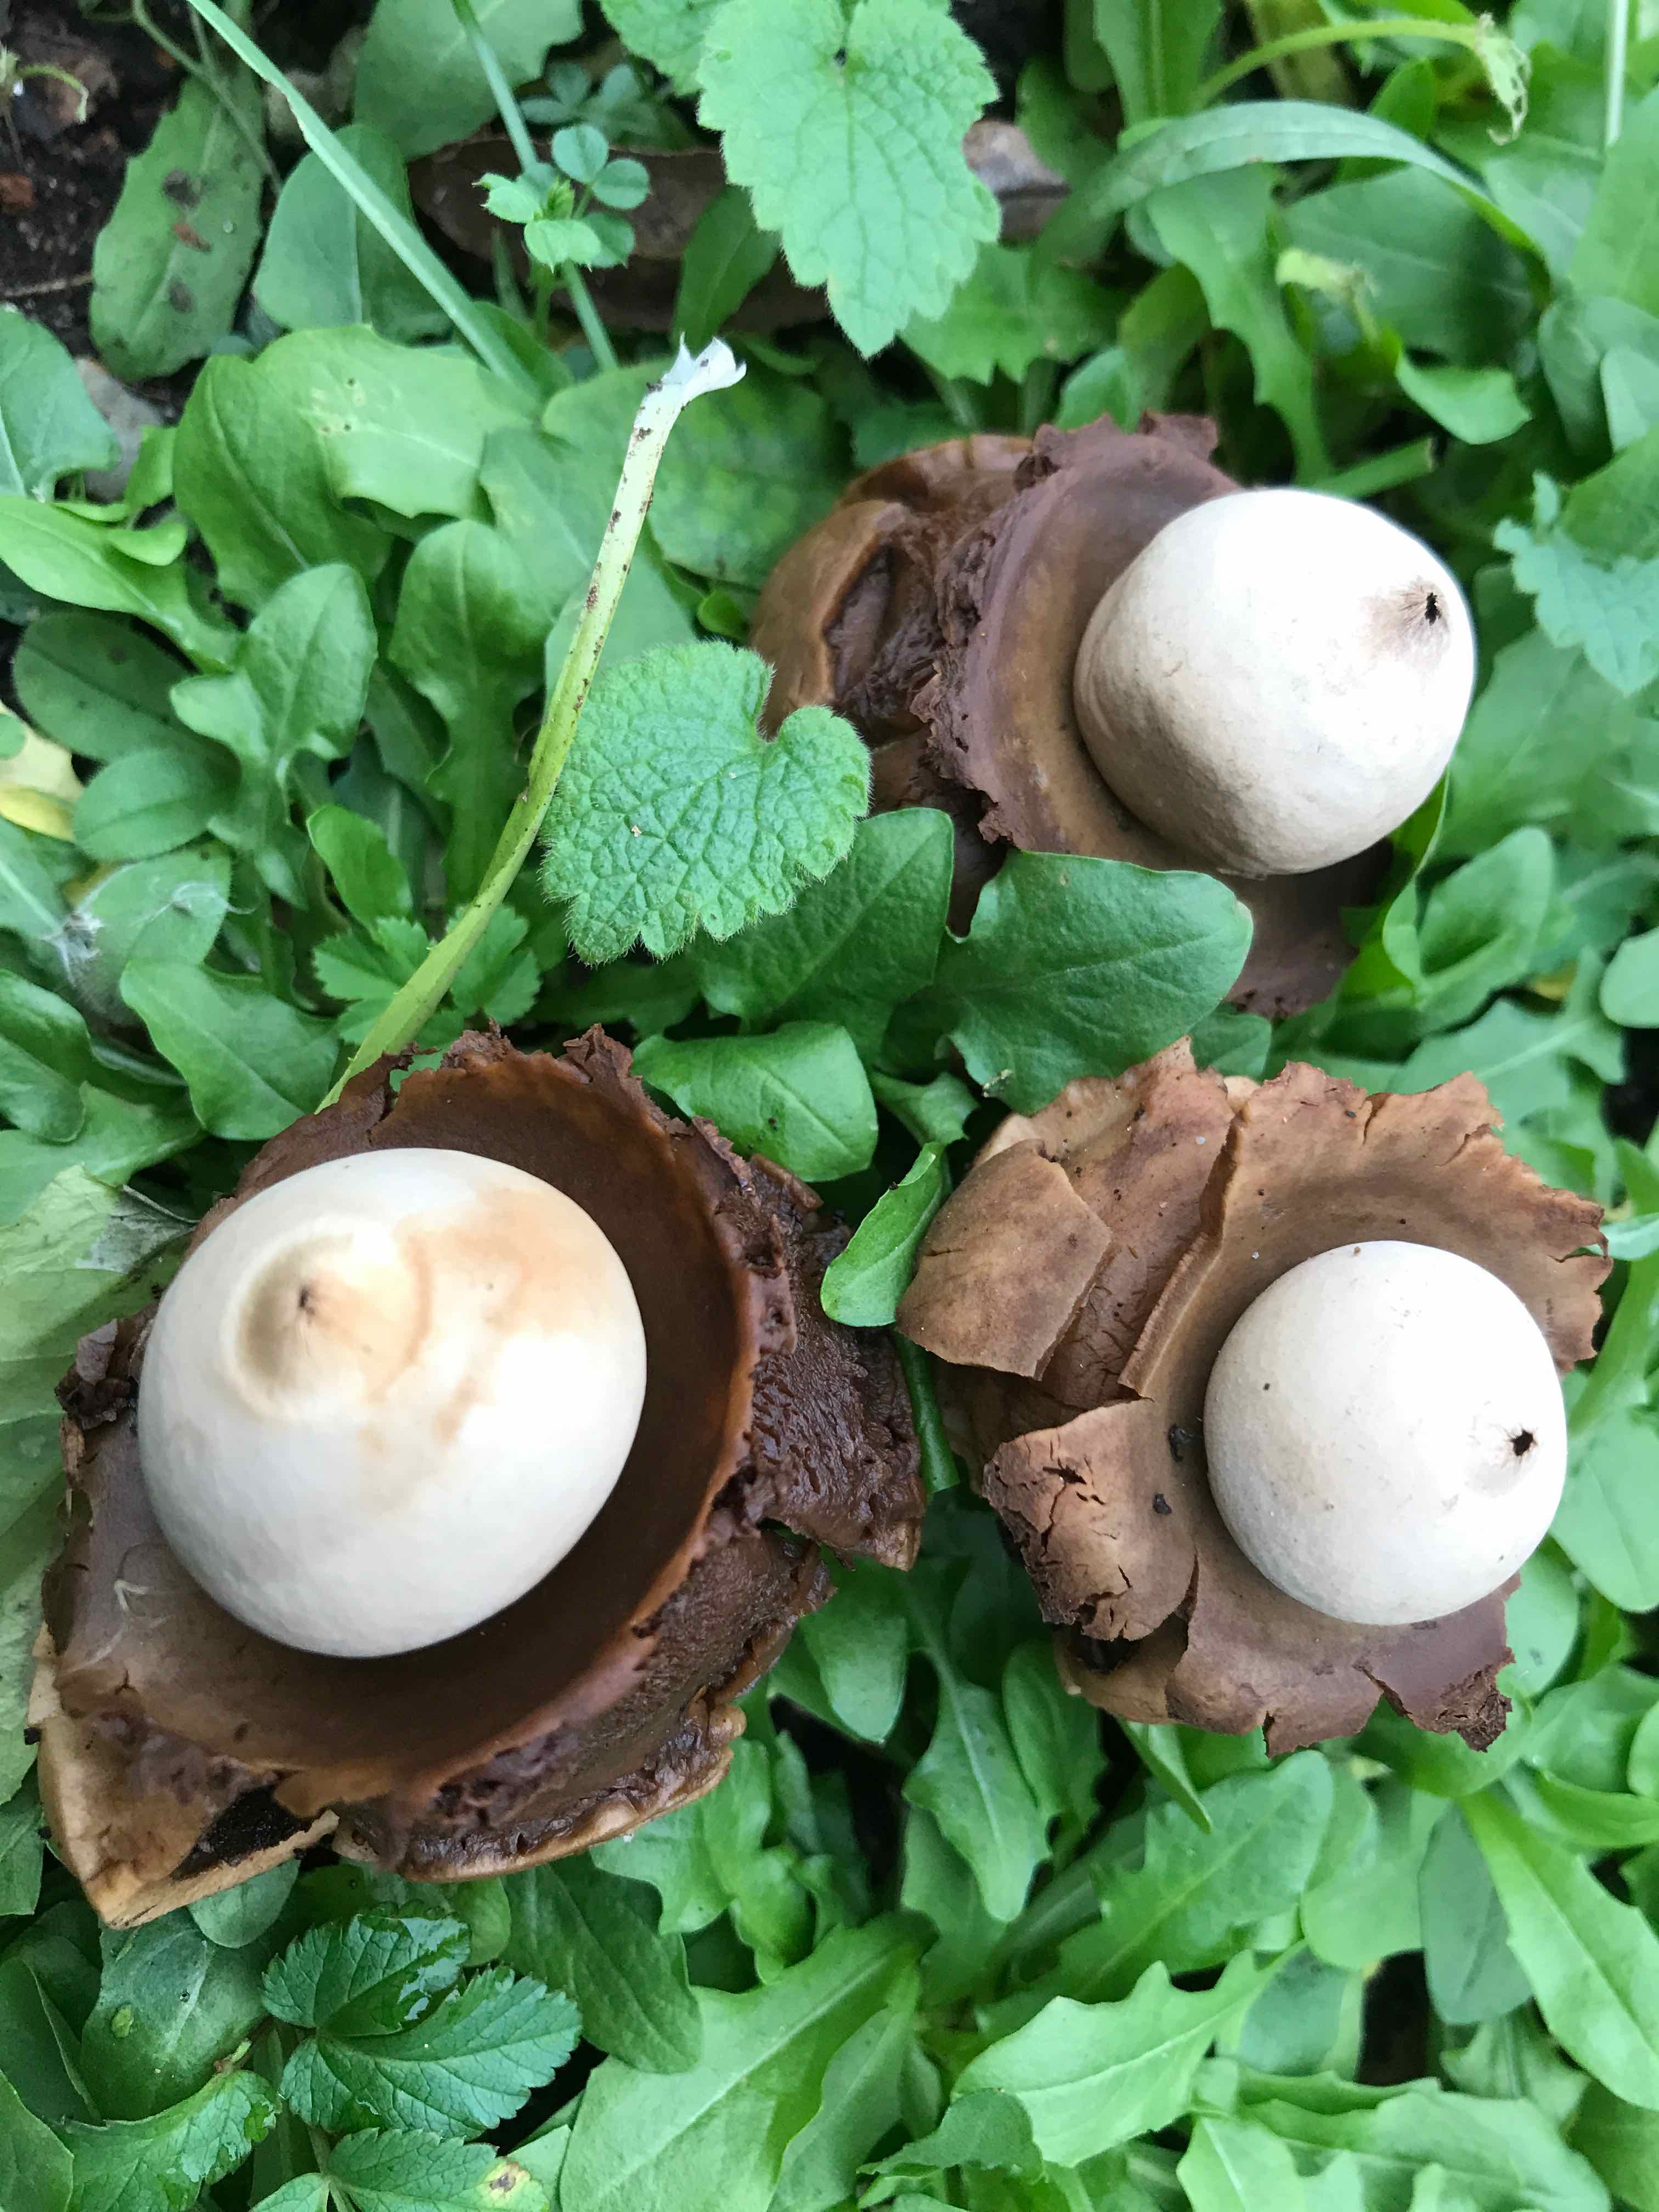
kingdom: Fungi
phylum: Basidiomycota
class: Agaricomycetes
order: Geastrales
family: Geastraceae
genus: Geastrum
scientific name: Geastrum michelianum
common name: kødet stjernebold
